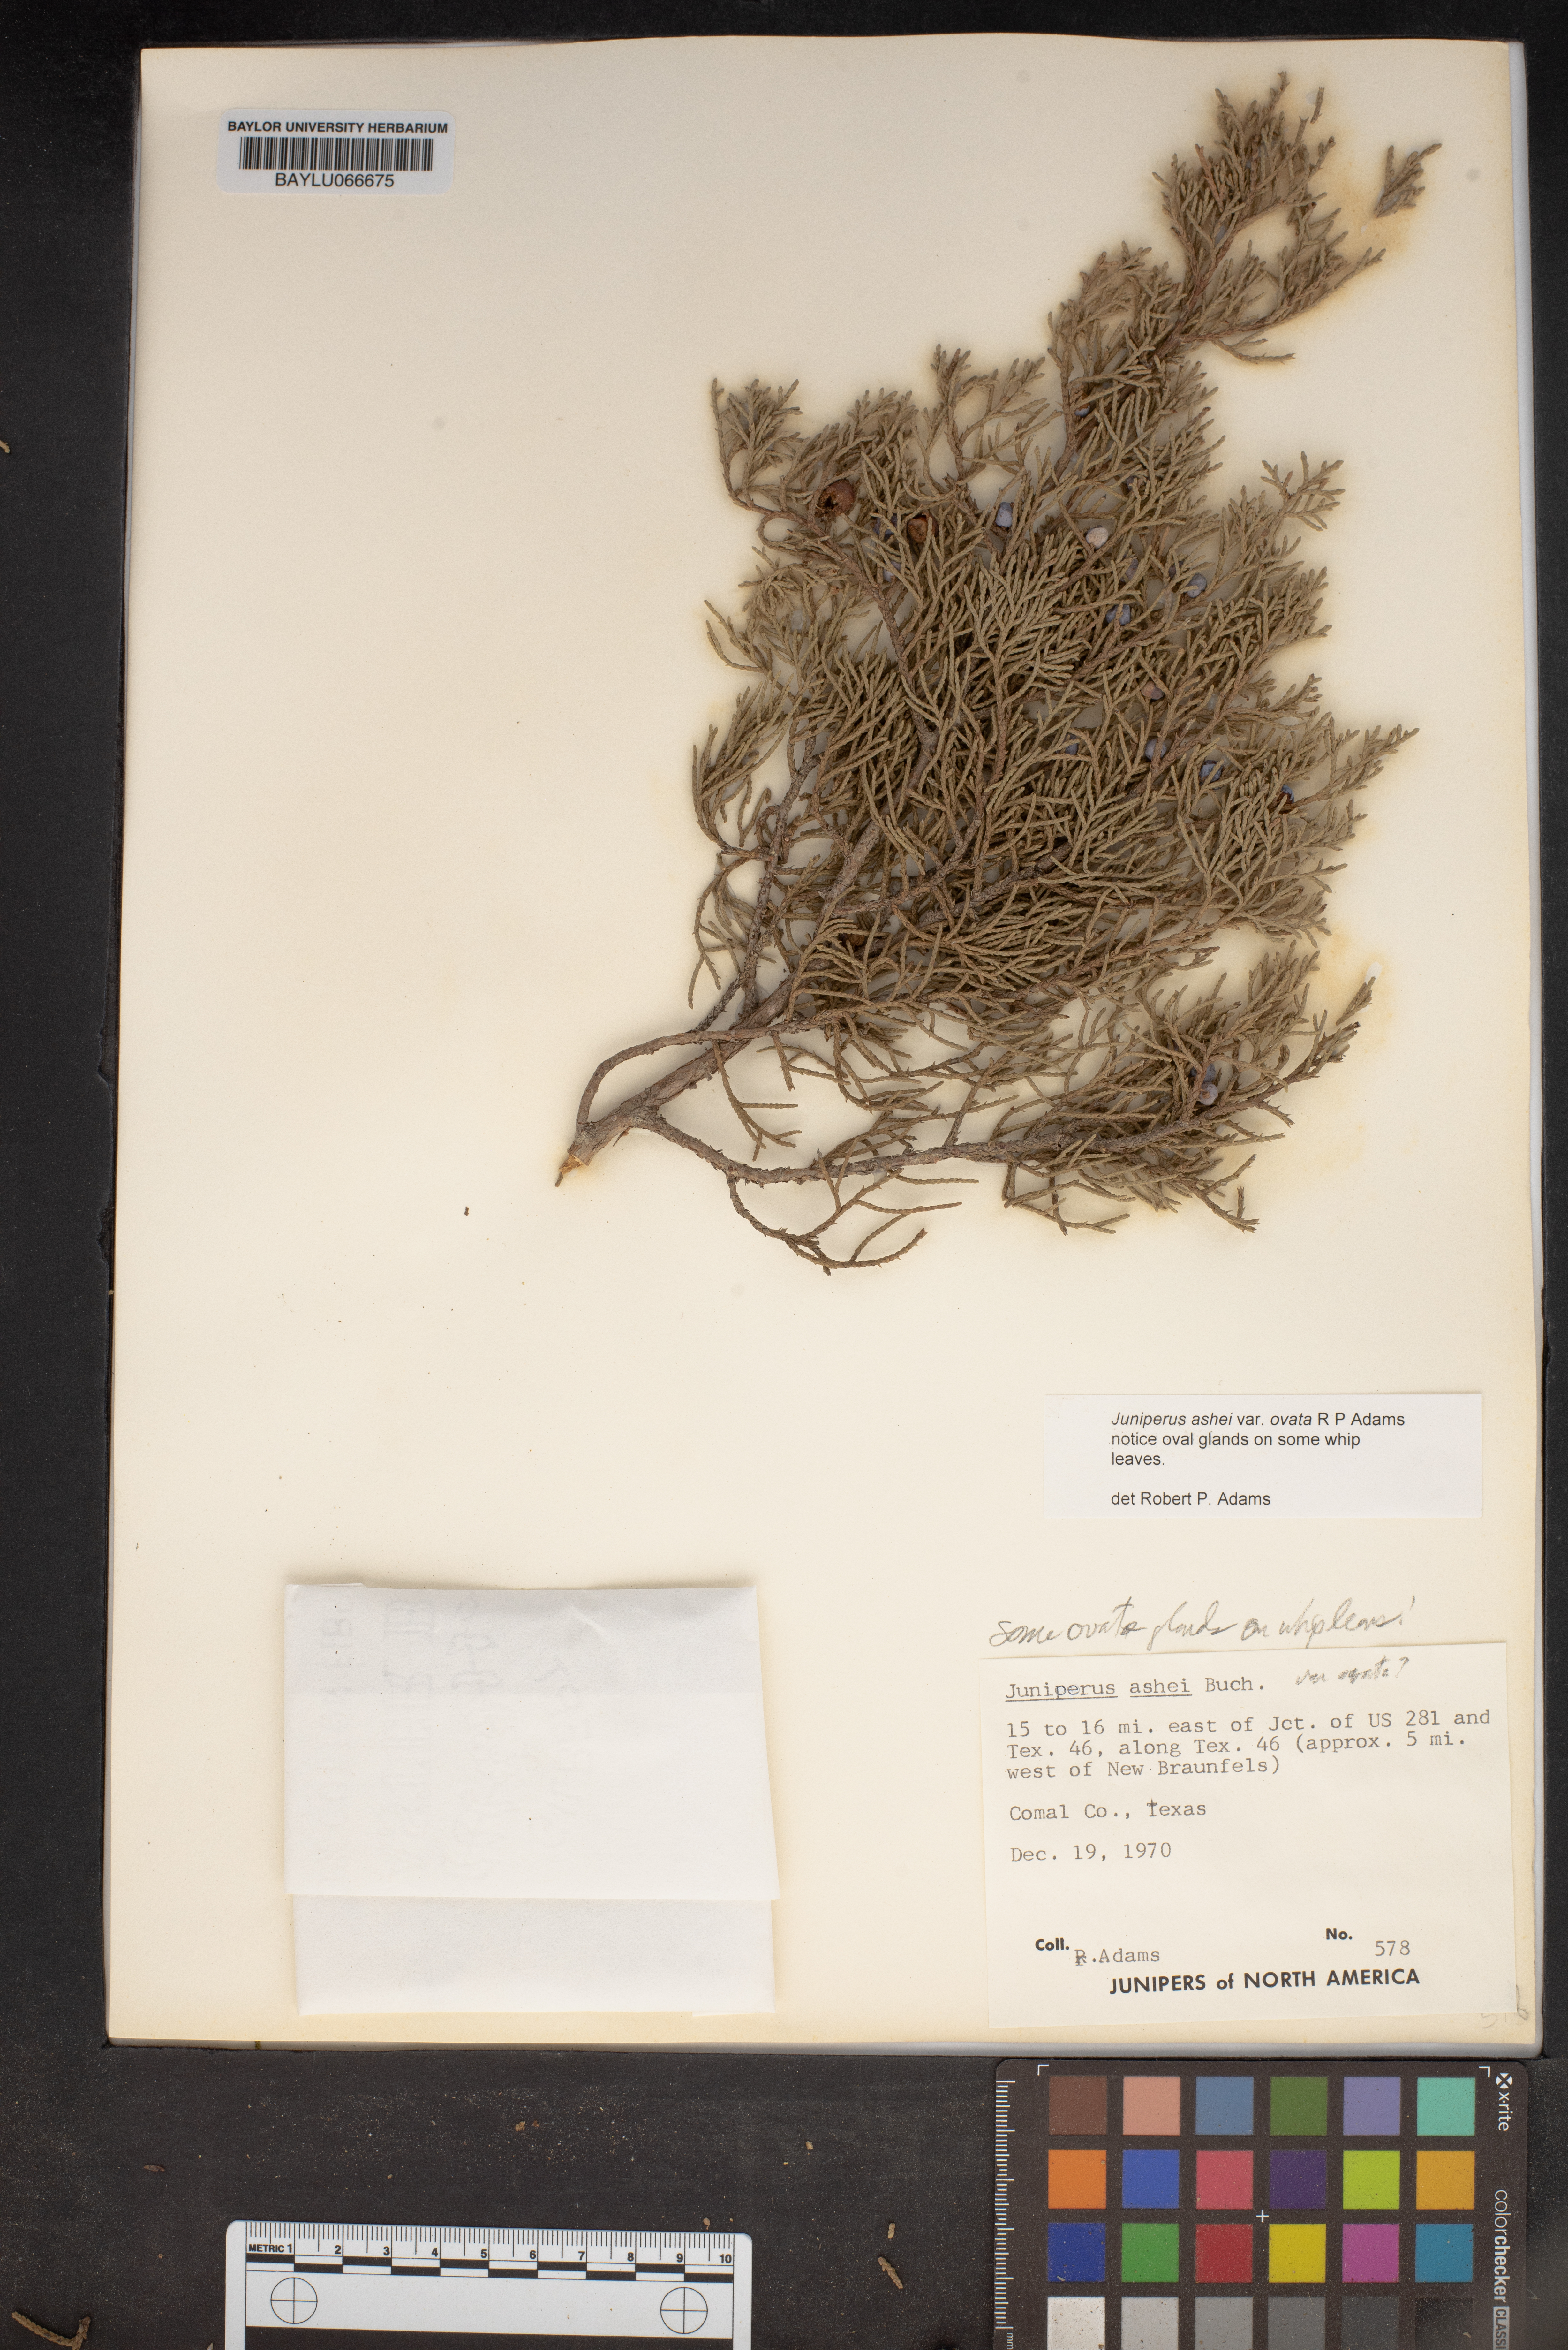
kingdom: Plantae
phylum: Tracheophyta
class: Pinopsida
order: Pinales
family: Cupressaceae
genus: Juniperus
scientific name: Juniperus ashei
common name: Mexican juniper
